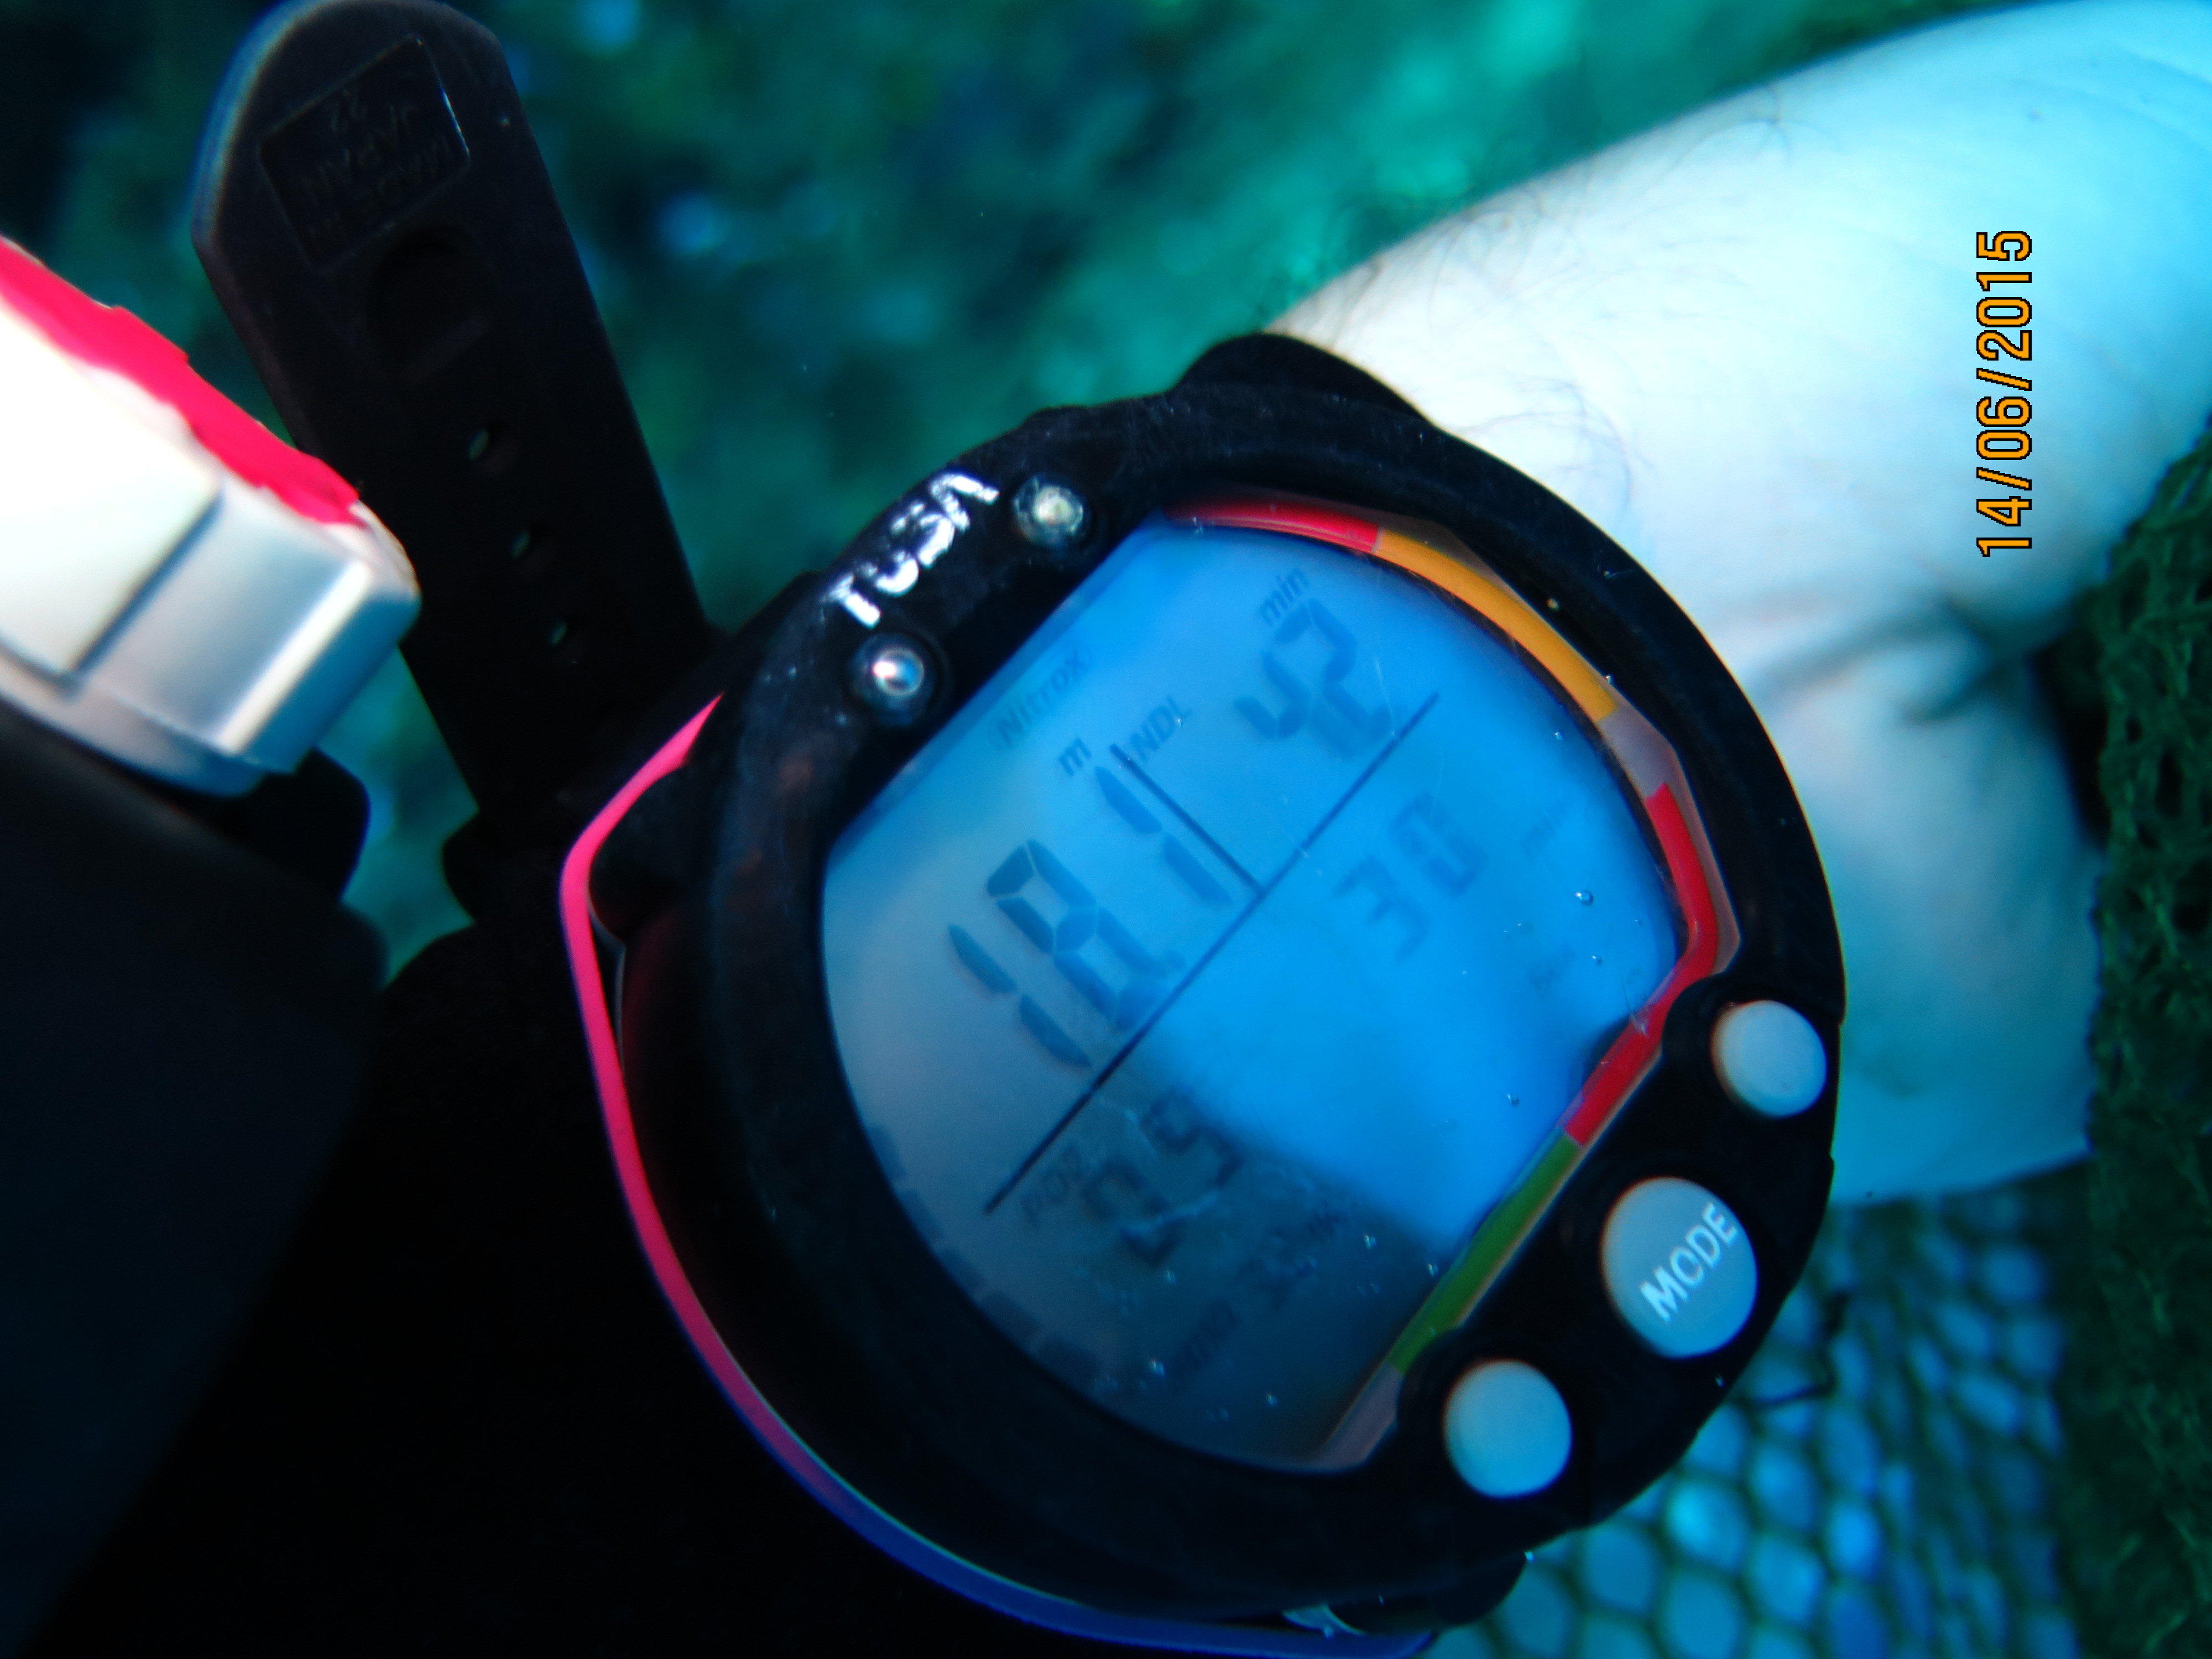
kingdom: Animalia
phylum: Porifera
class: Demospongiae
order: Verongiida
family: Aplysinidae
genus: Aplysina
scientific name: Aplysina fistularis
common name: Candle sponge
